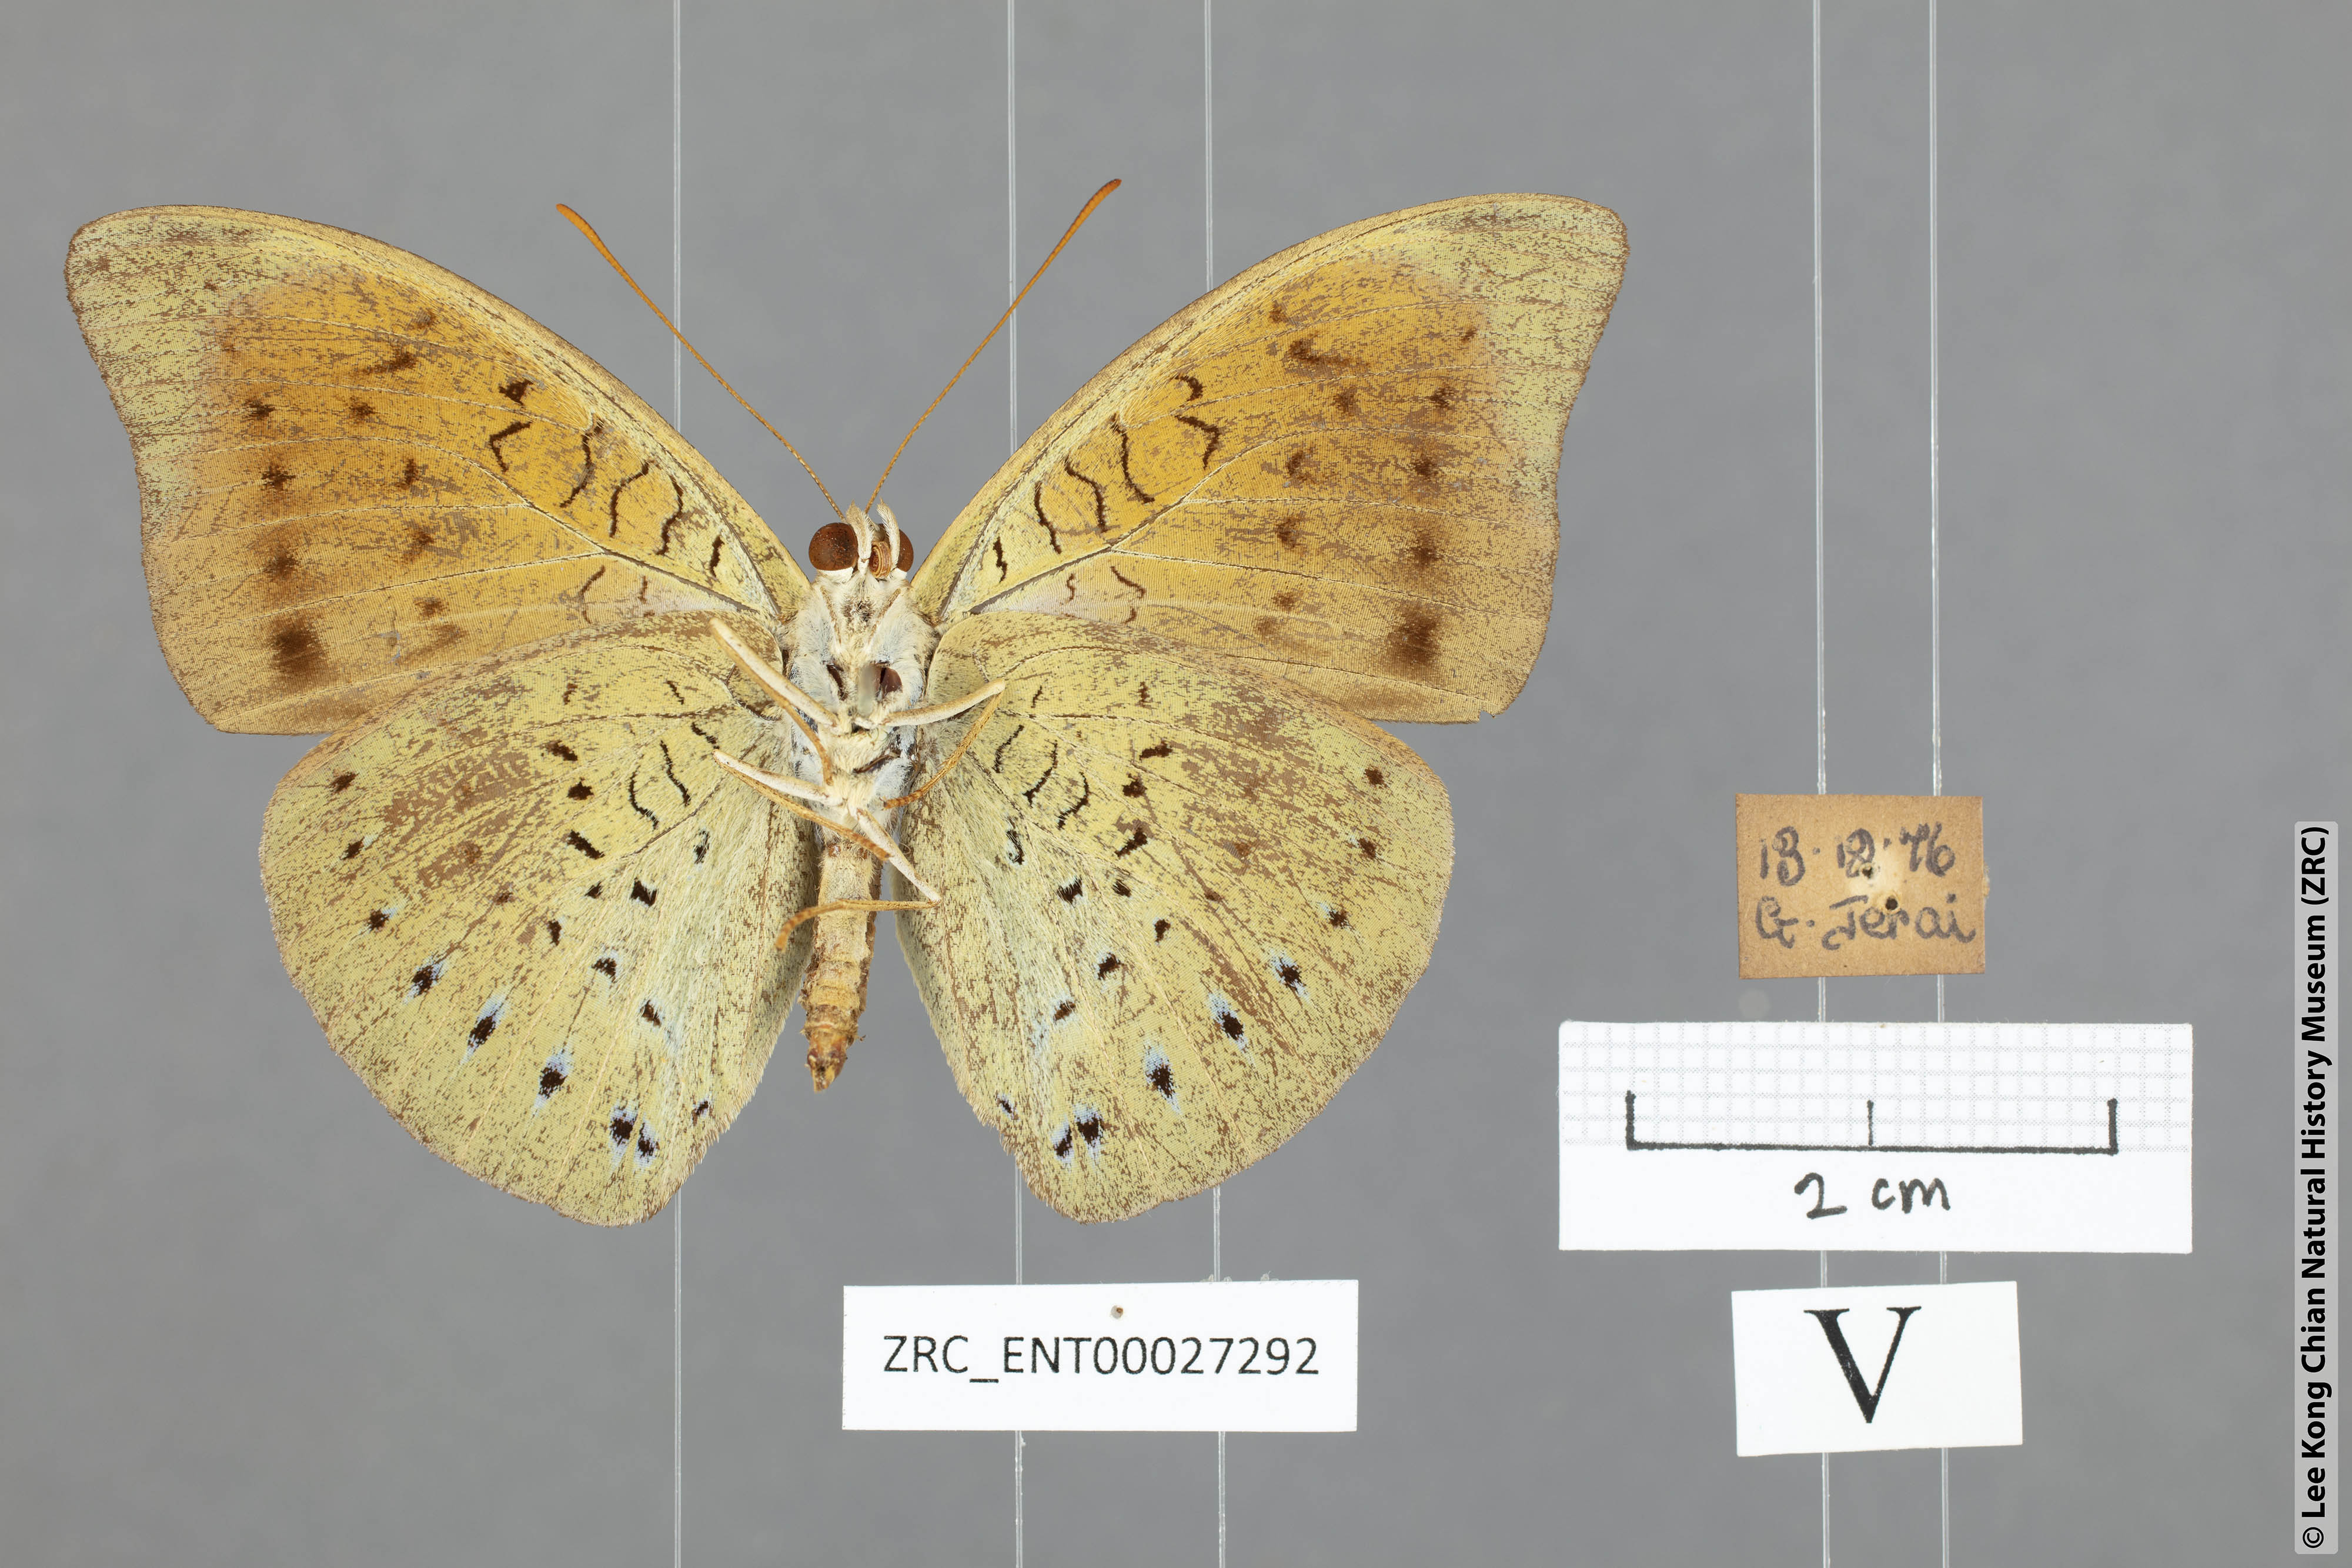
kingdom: Animalia
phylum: Arthropoda
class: Insecta
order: Lepidoptera
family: Nymphalidae
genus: Tanaecia
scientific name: Tanaecia julii
